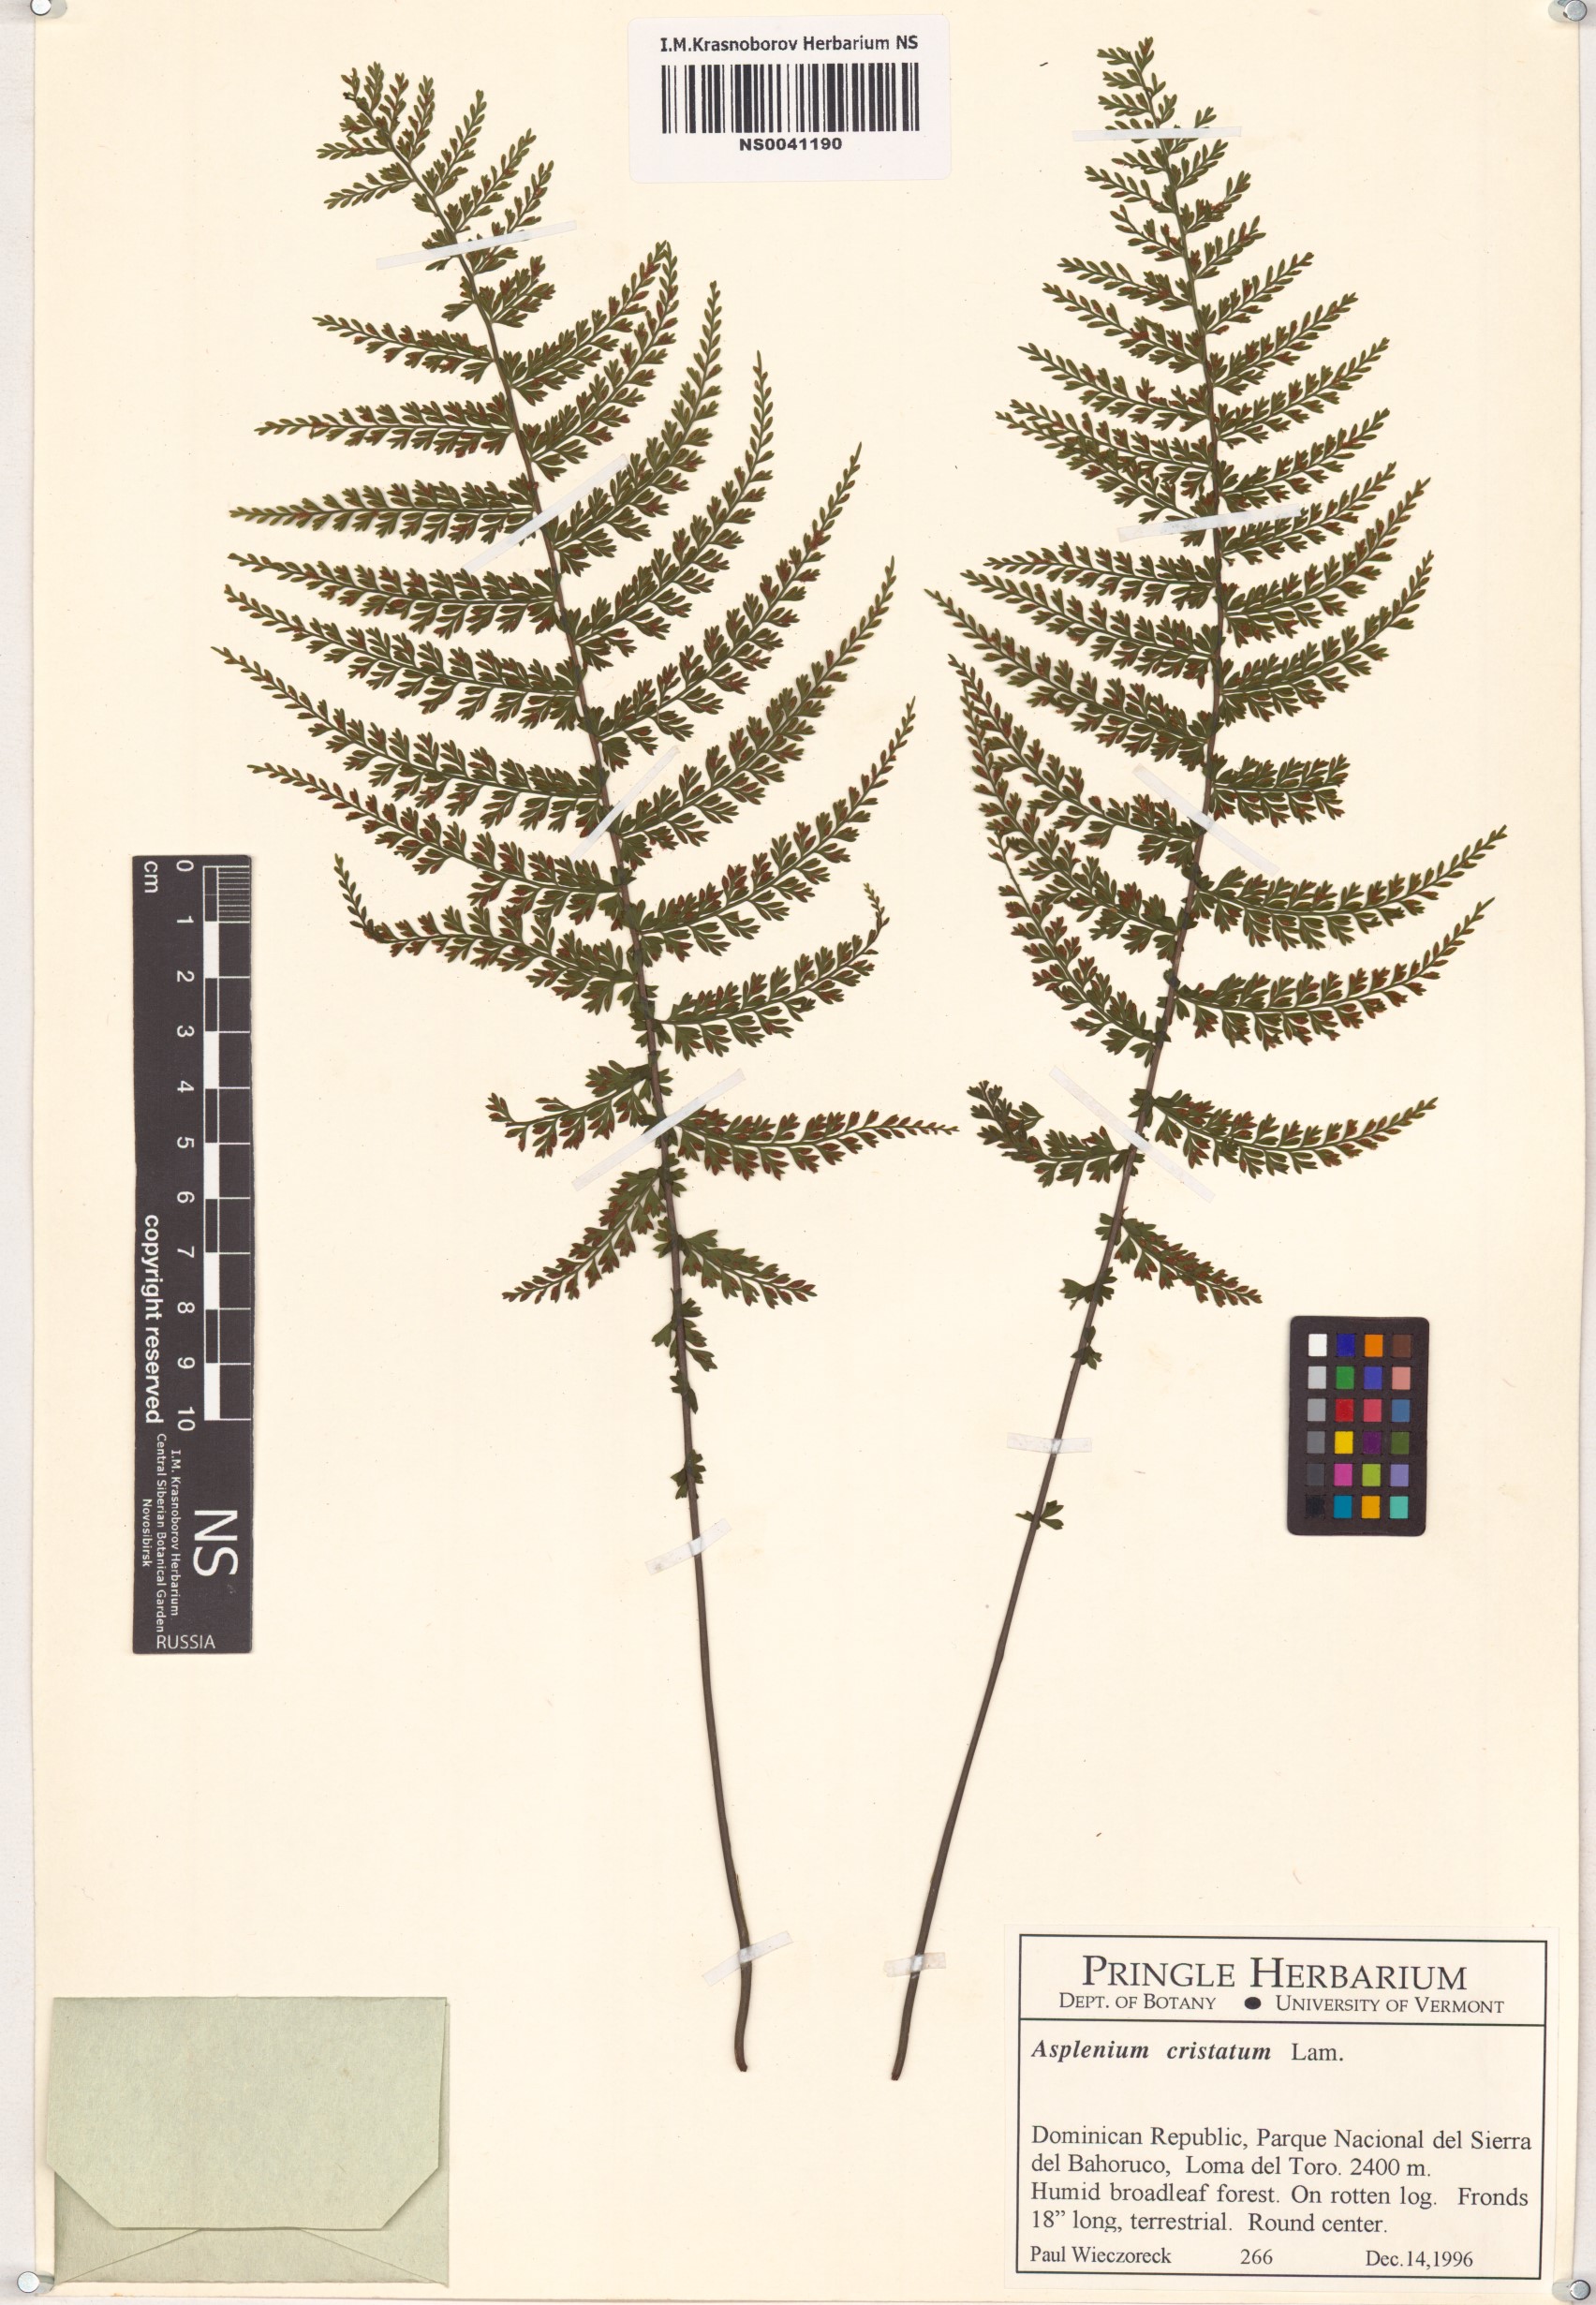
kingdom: Plantae
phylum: Tracheophyta
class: Polypodiopsida
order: Polypodiales
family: Aspleniaceae
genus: Asplenium
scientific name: Asplenium cristatum
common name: Parsley spleenwort
